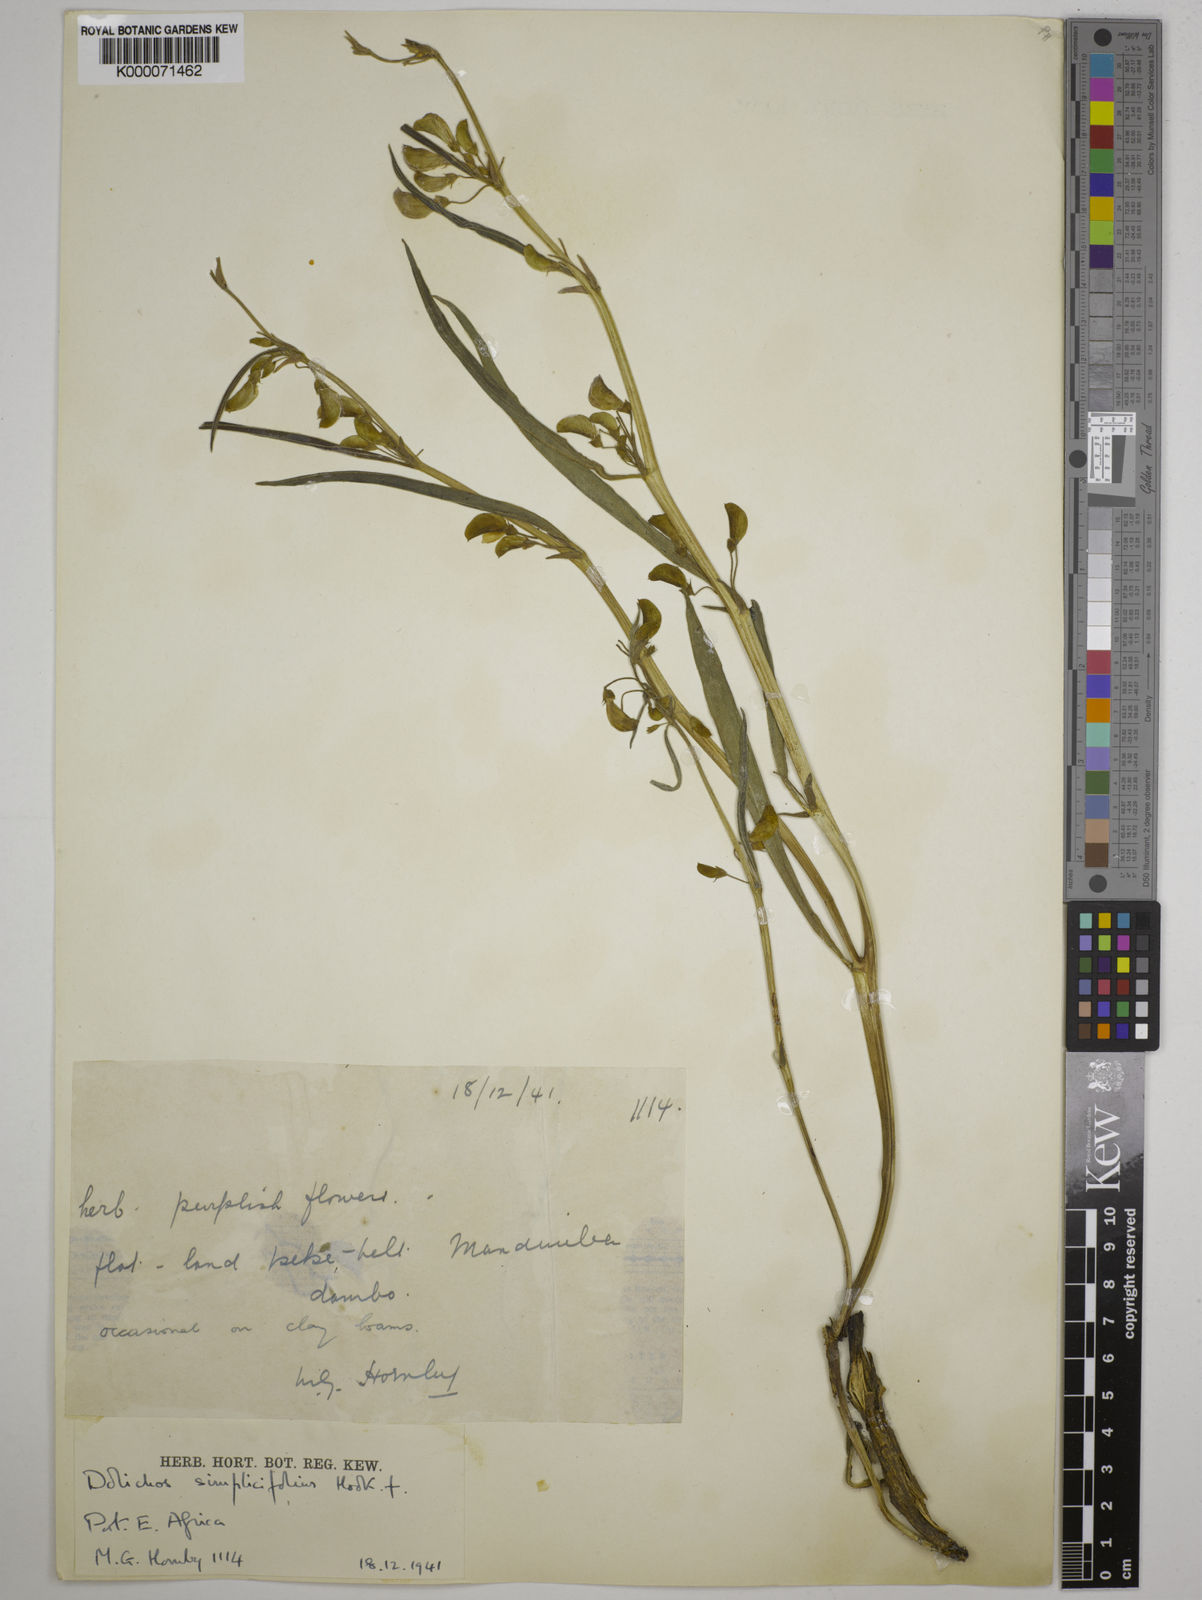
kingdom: Plantae
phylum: Tracheophyta
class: Magnoliopsida
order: Fabales
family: Fabaceae
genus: Dolichos
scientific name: Dolichos simplicifolius
